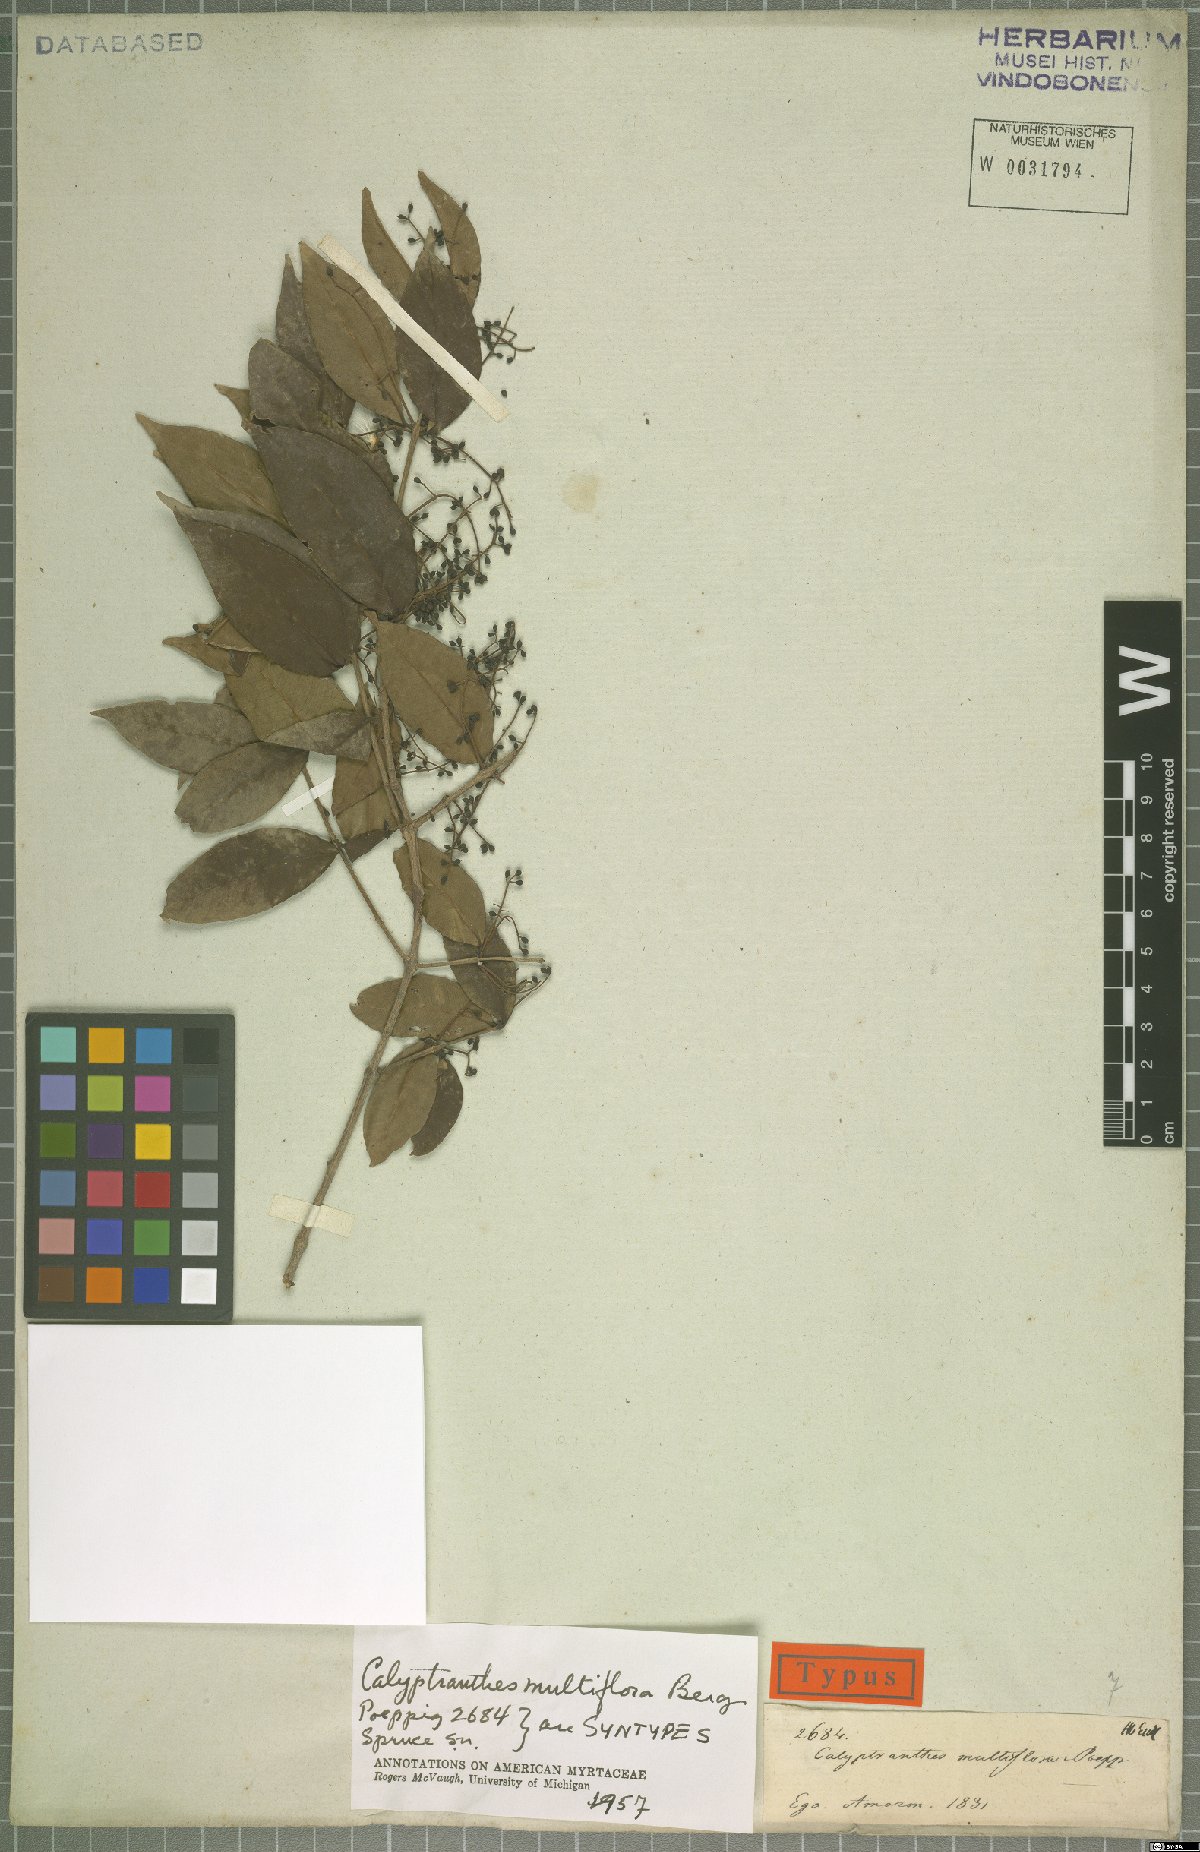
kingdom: Plantae
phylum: Tracheophyta
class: Magnoliopsida
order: Myrtales
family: Myrtaceae
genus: Myrcia
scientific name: Myrcia aulomyrcioides
